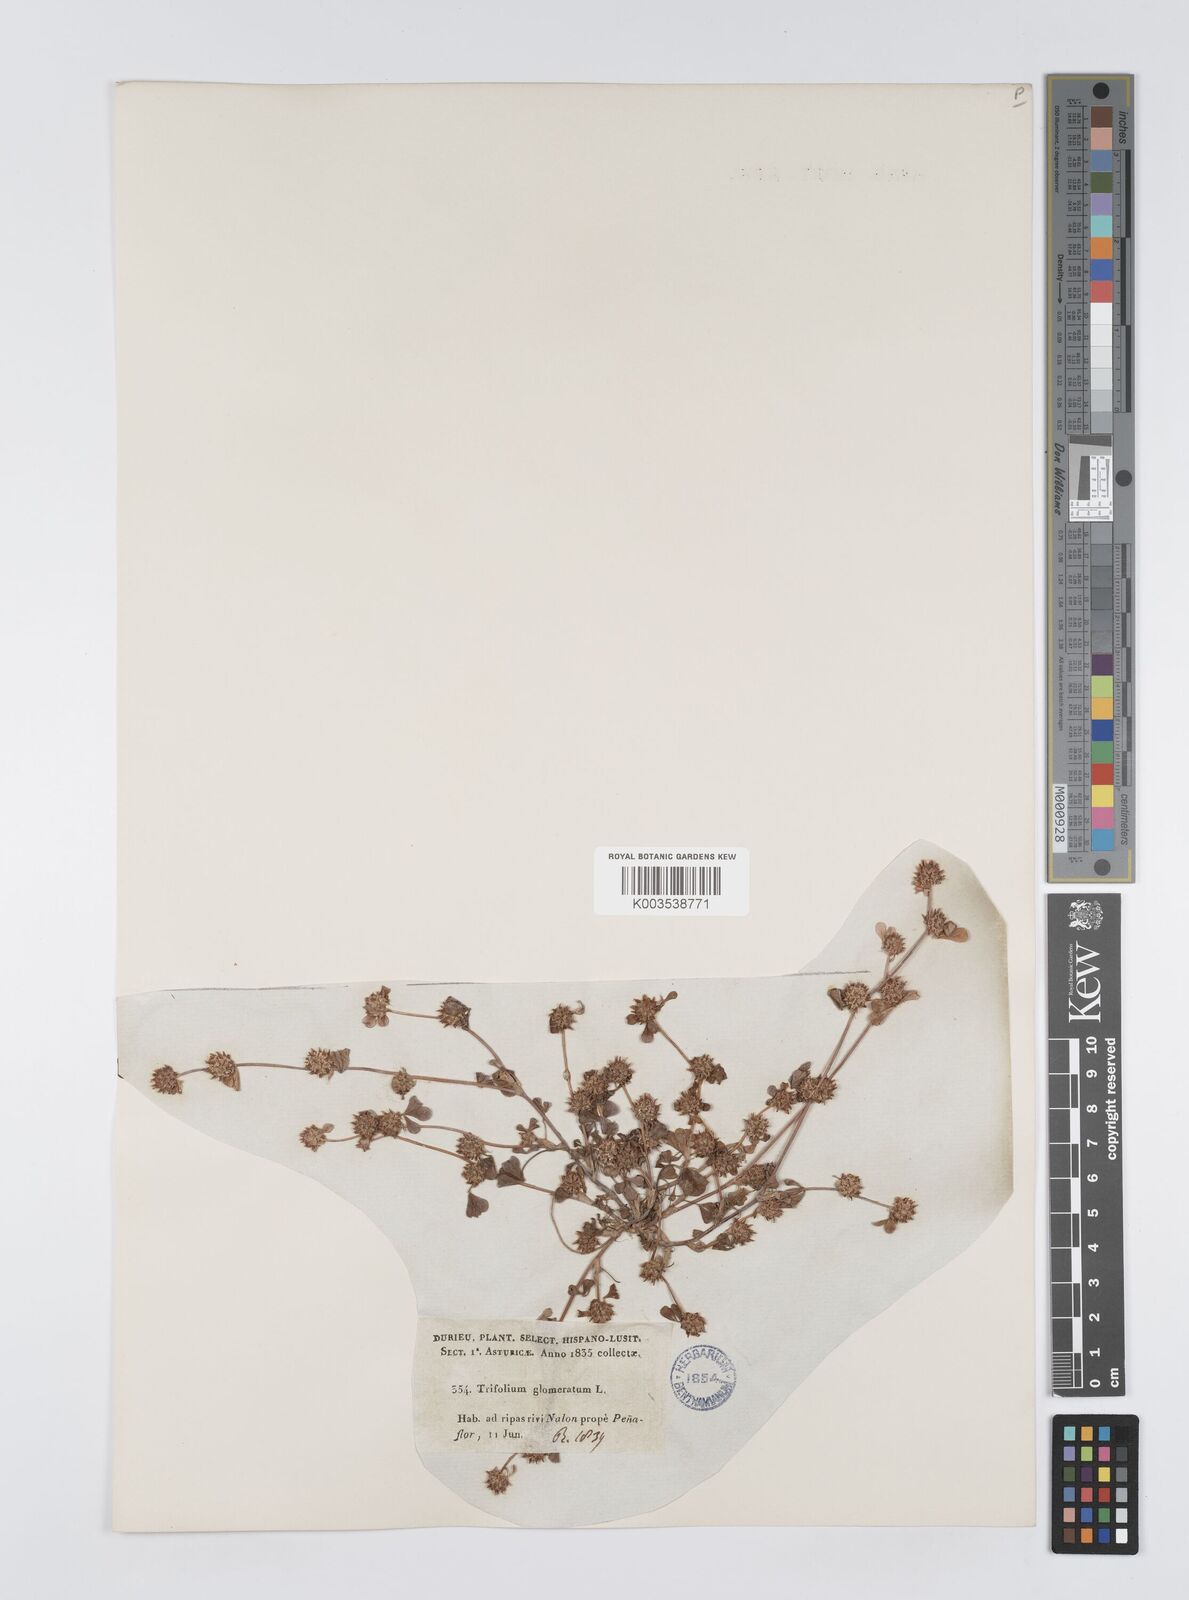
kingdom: Plantae
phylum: Tracheophyta
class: Magnoliopsida
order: Fabales
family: Fabaceae
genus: Trifolium
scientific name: Trifolium glomeratum
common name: Clustered clover
